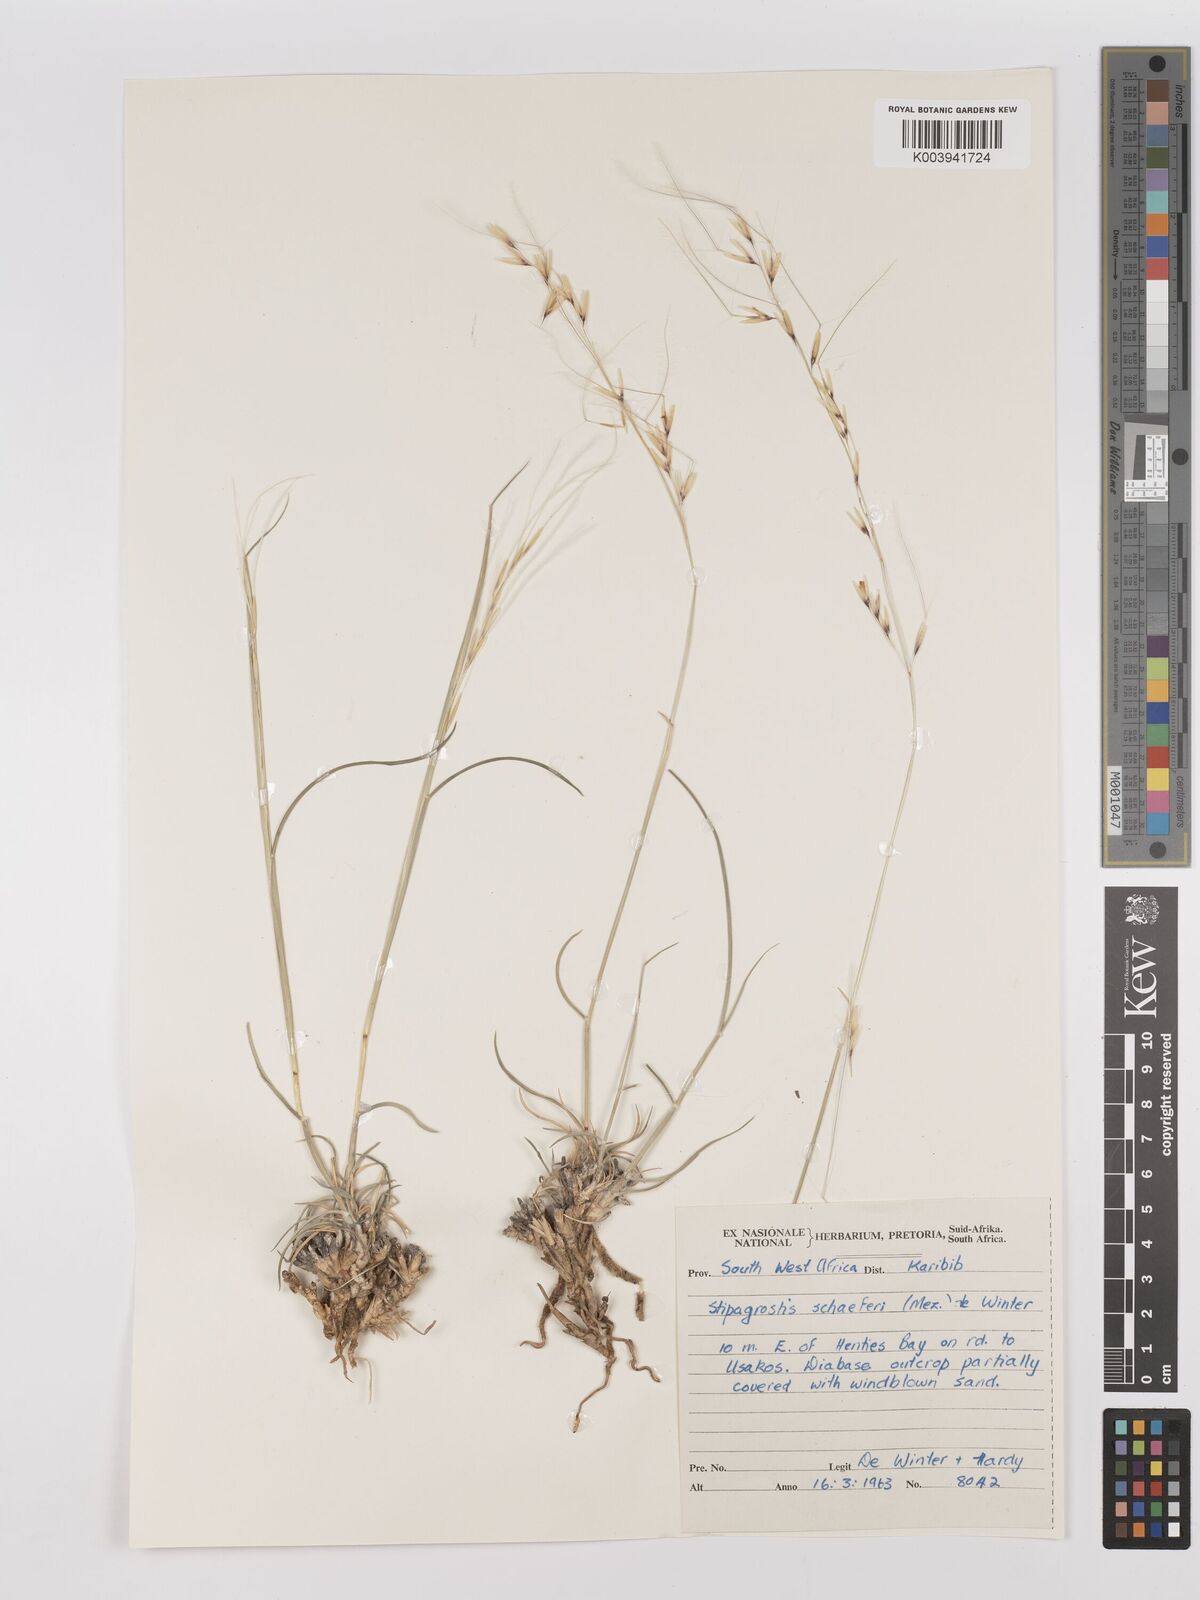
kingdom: Plantae
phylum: Tracheophyta
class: Liliopsida
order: Poales
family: Poaceae
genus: Stipagrostis
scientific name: Stipagrostis schaeferi
